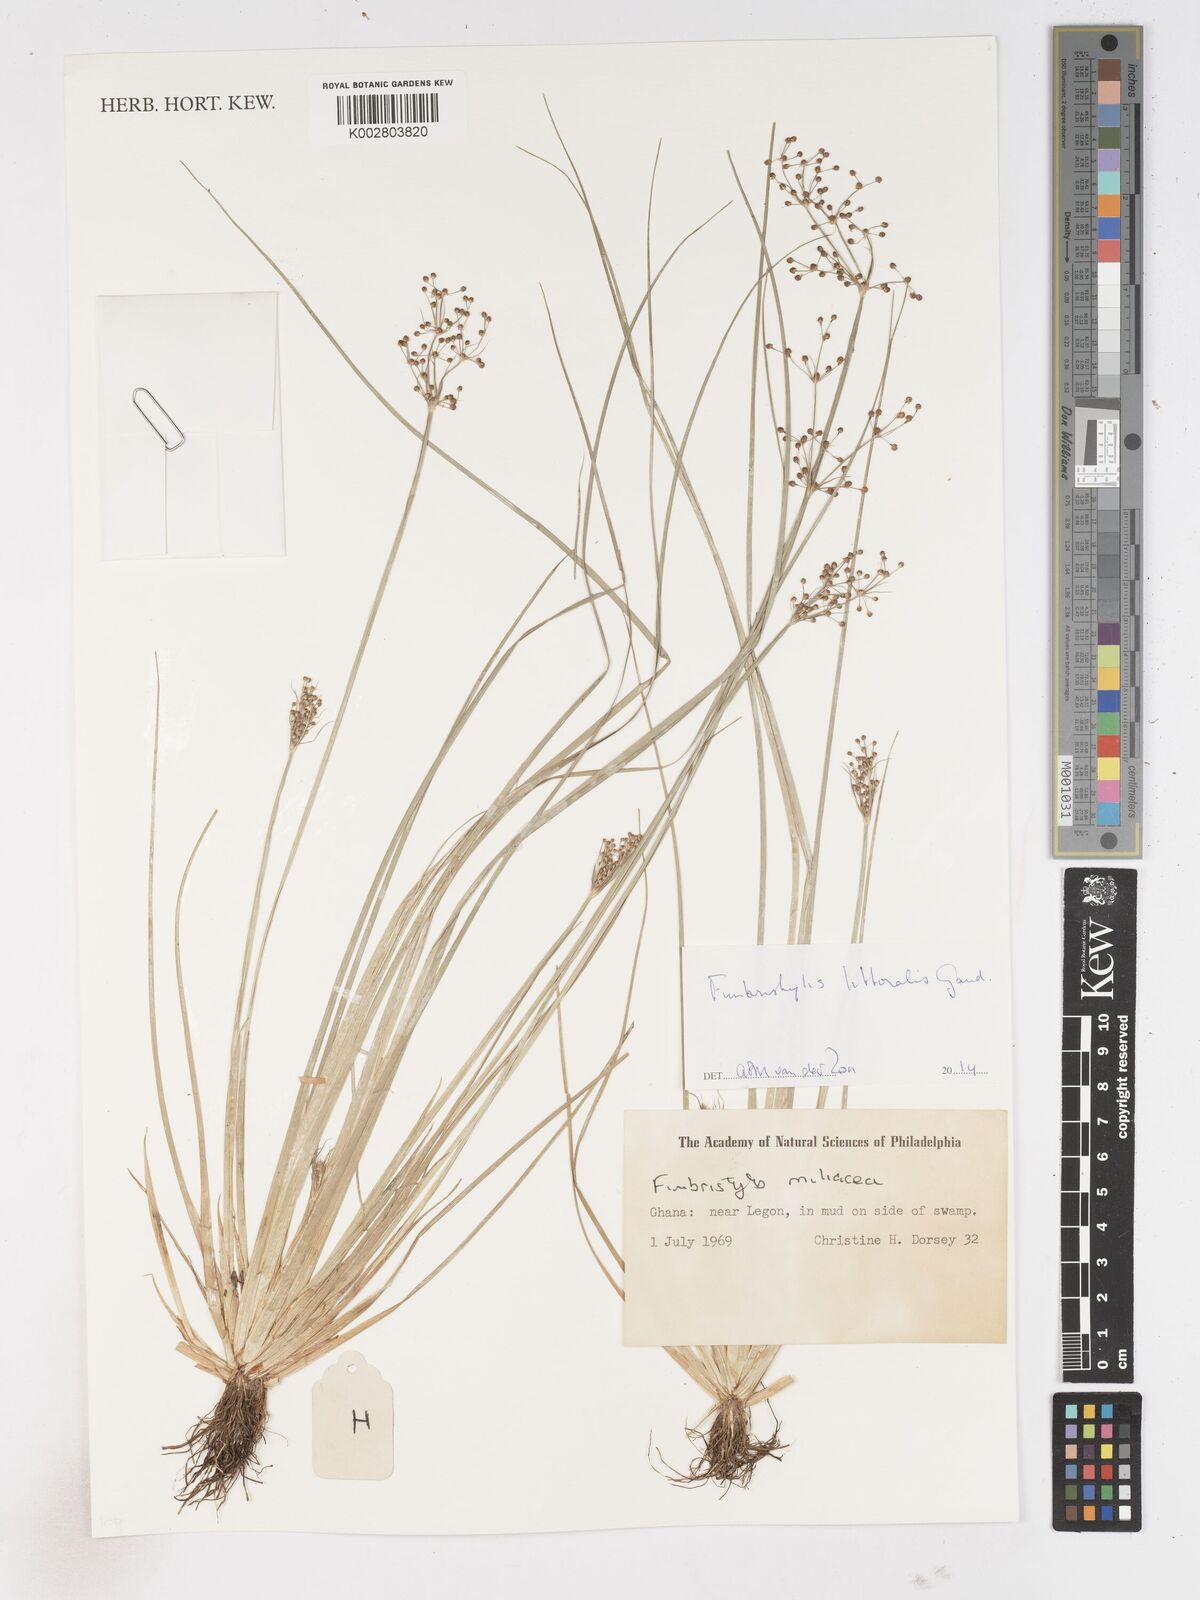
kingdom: Plantae
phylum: Tracheophyta
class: Liliopsida
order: Poales
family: Cyperaceae
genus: Fimbristylis
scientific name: Fimbristylis littoralis
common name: Fimbry
